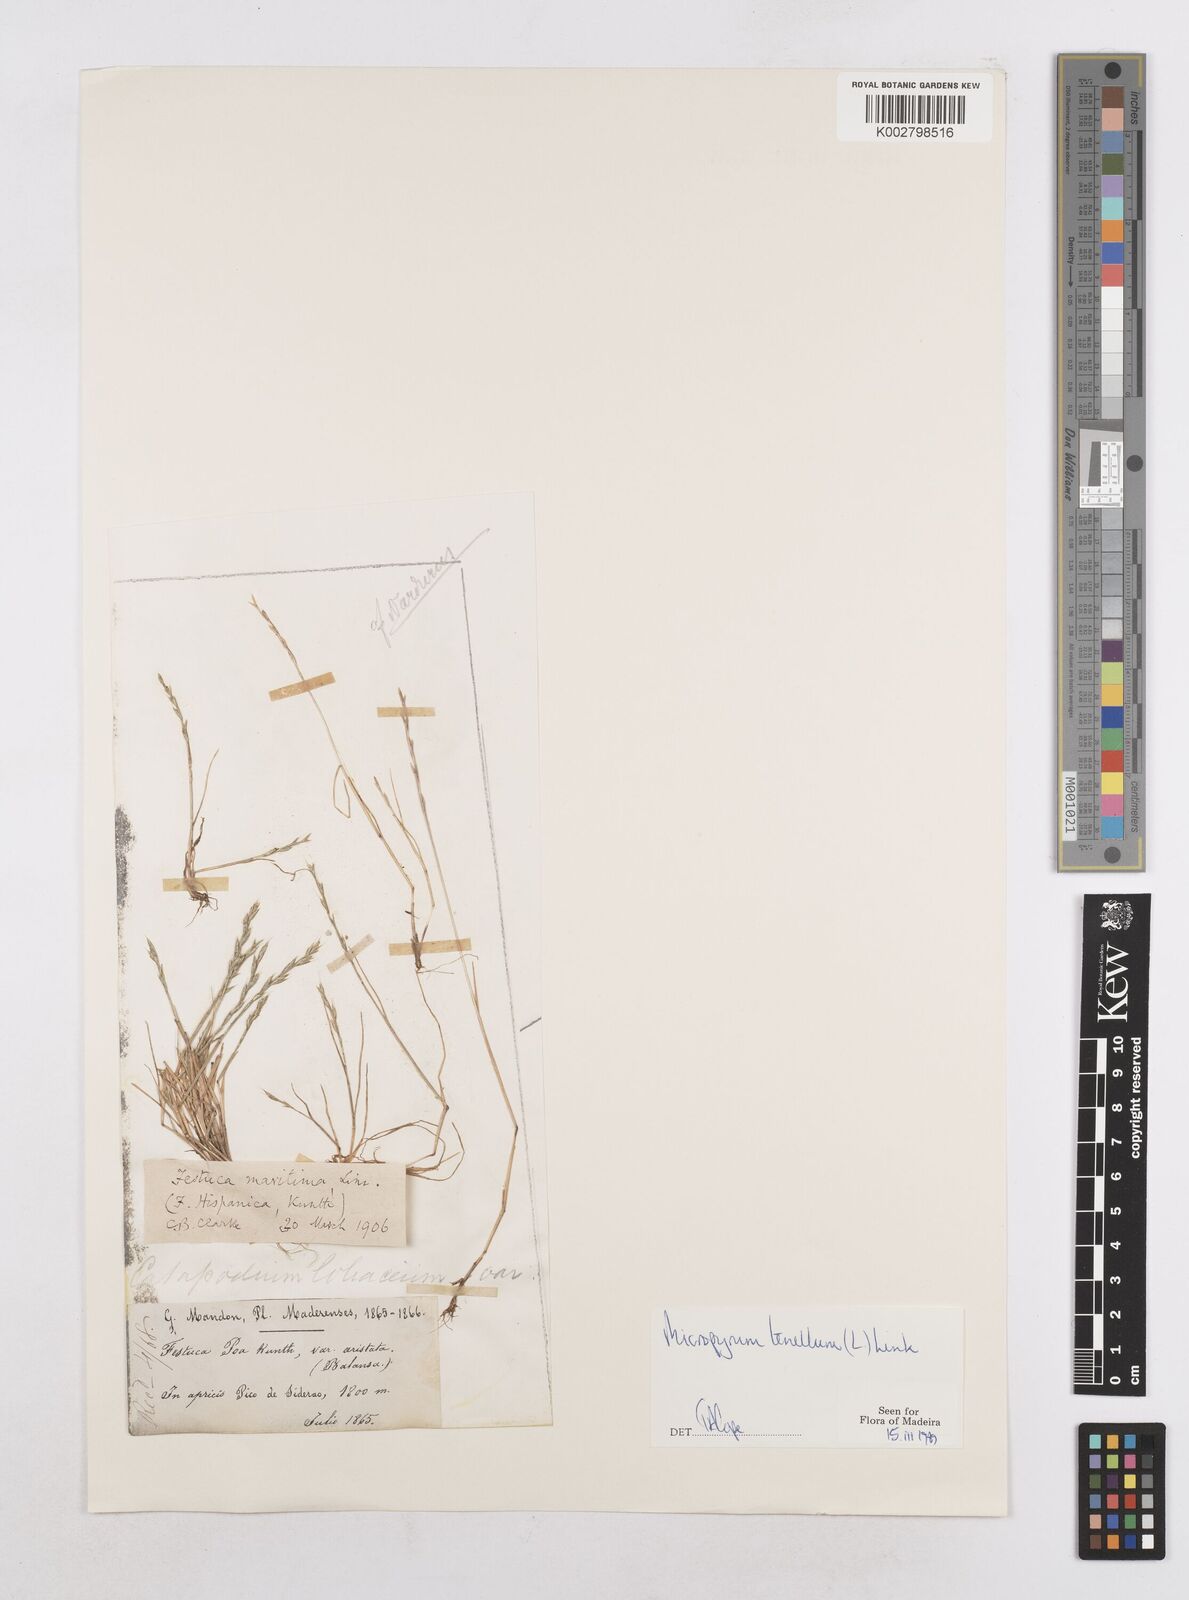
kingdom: Plantae
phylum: Tracheophyta
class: Liliopsida
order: Poales
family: Poaceae
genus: Festuca
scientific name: Festuca lachenalii
